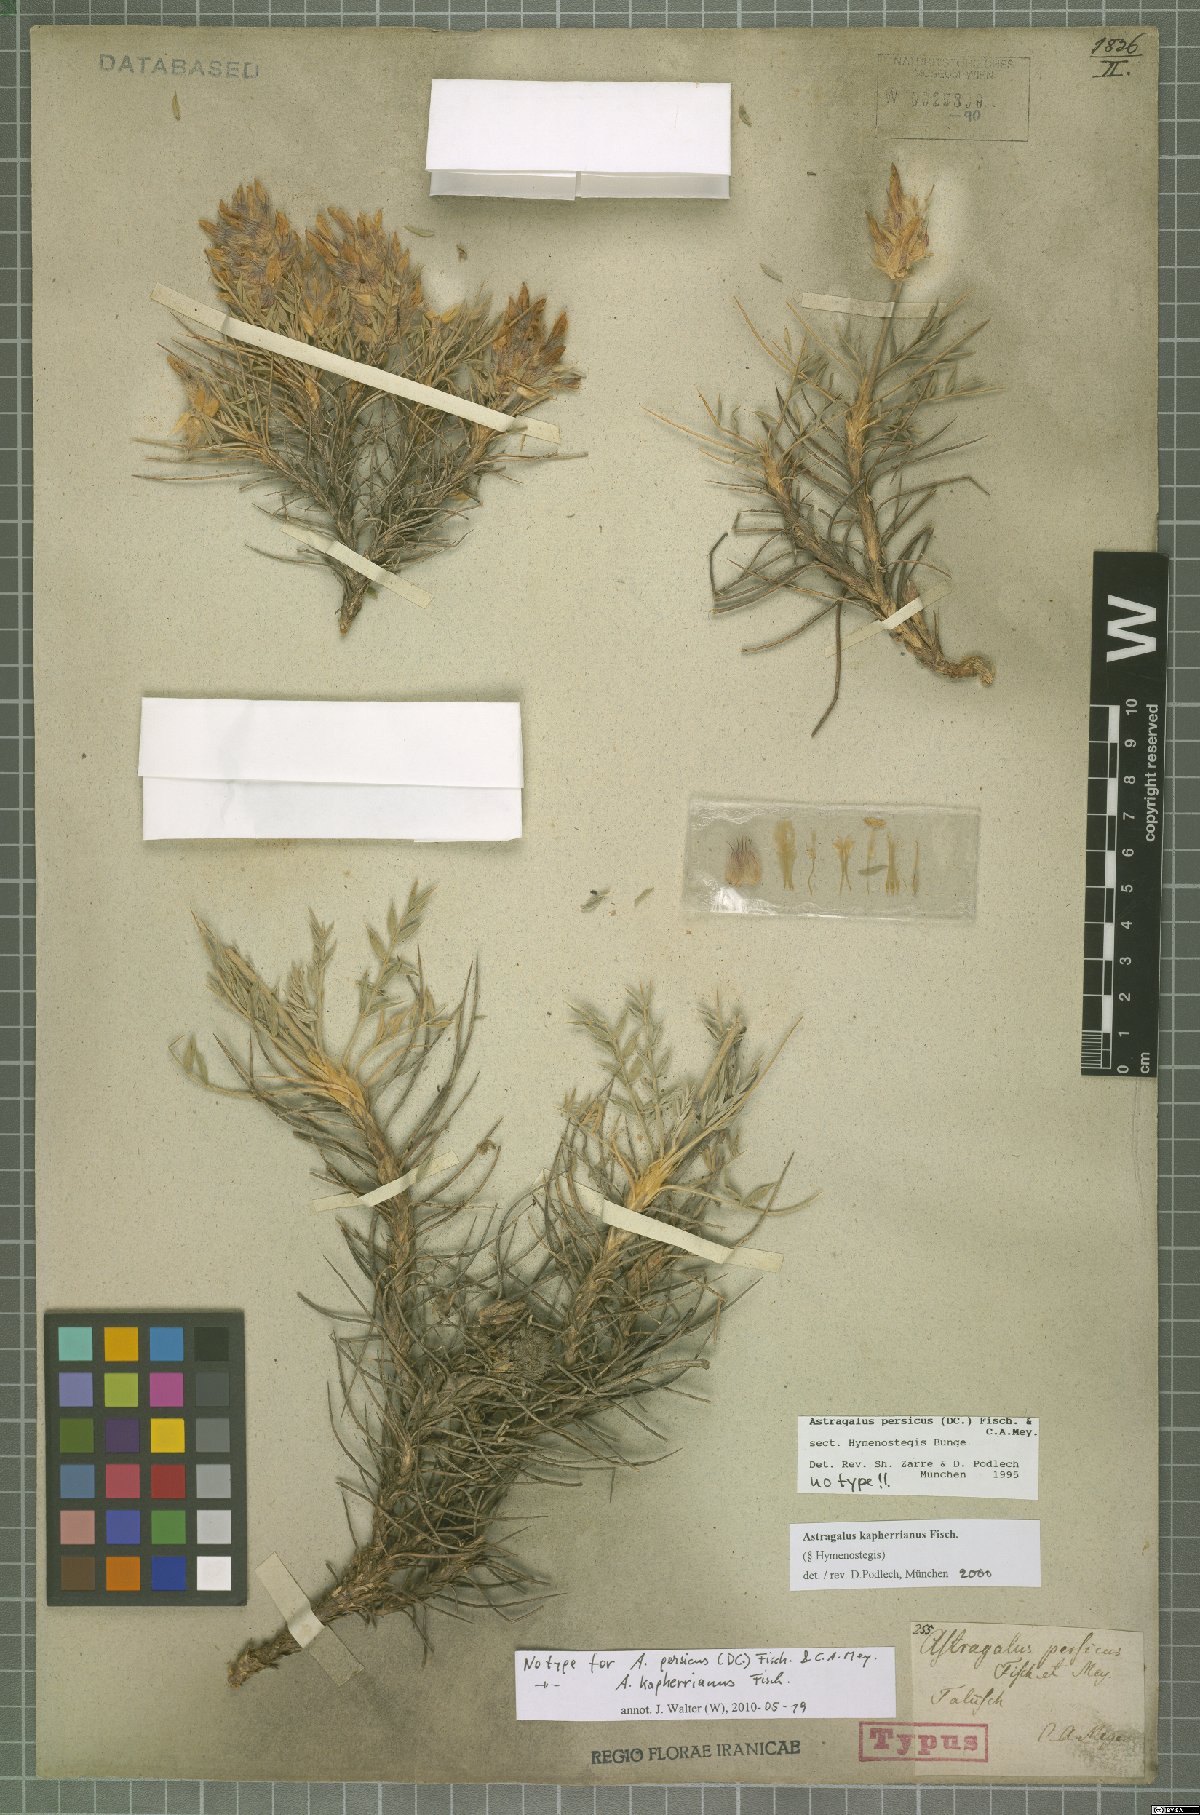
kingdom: Plantae
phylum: Tracheophyta
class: Magnoliopsida
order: Fabales
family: Fabaceae
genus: Astragalus
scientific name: Astragalus kapherrianus
